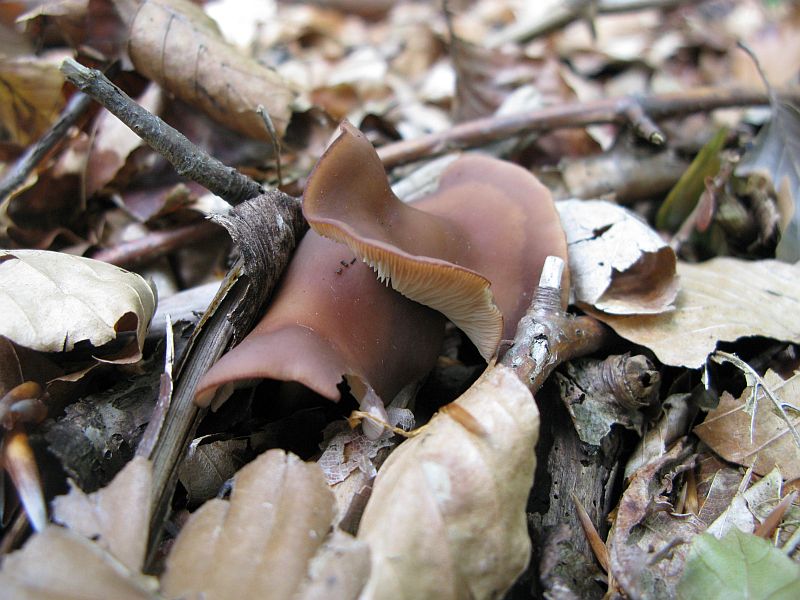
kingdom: Fungi
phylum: Basidiomycota
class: Agaricomycetes
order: Agaricales
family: Omphalotaceae
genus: Gymnopus
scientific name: Gymnopus ocior
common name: mørk fladhat
